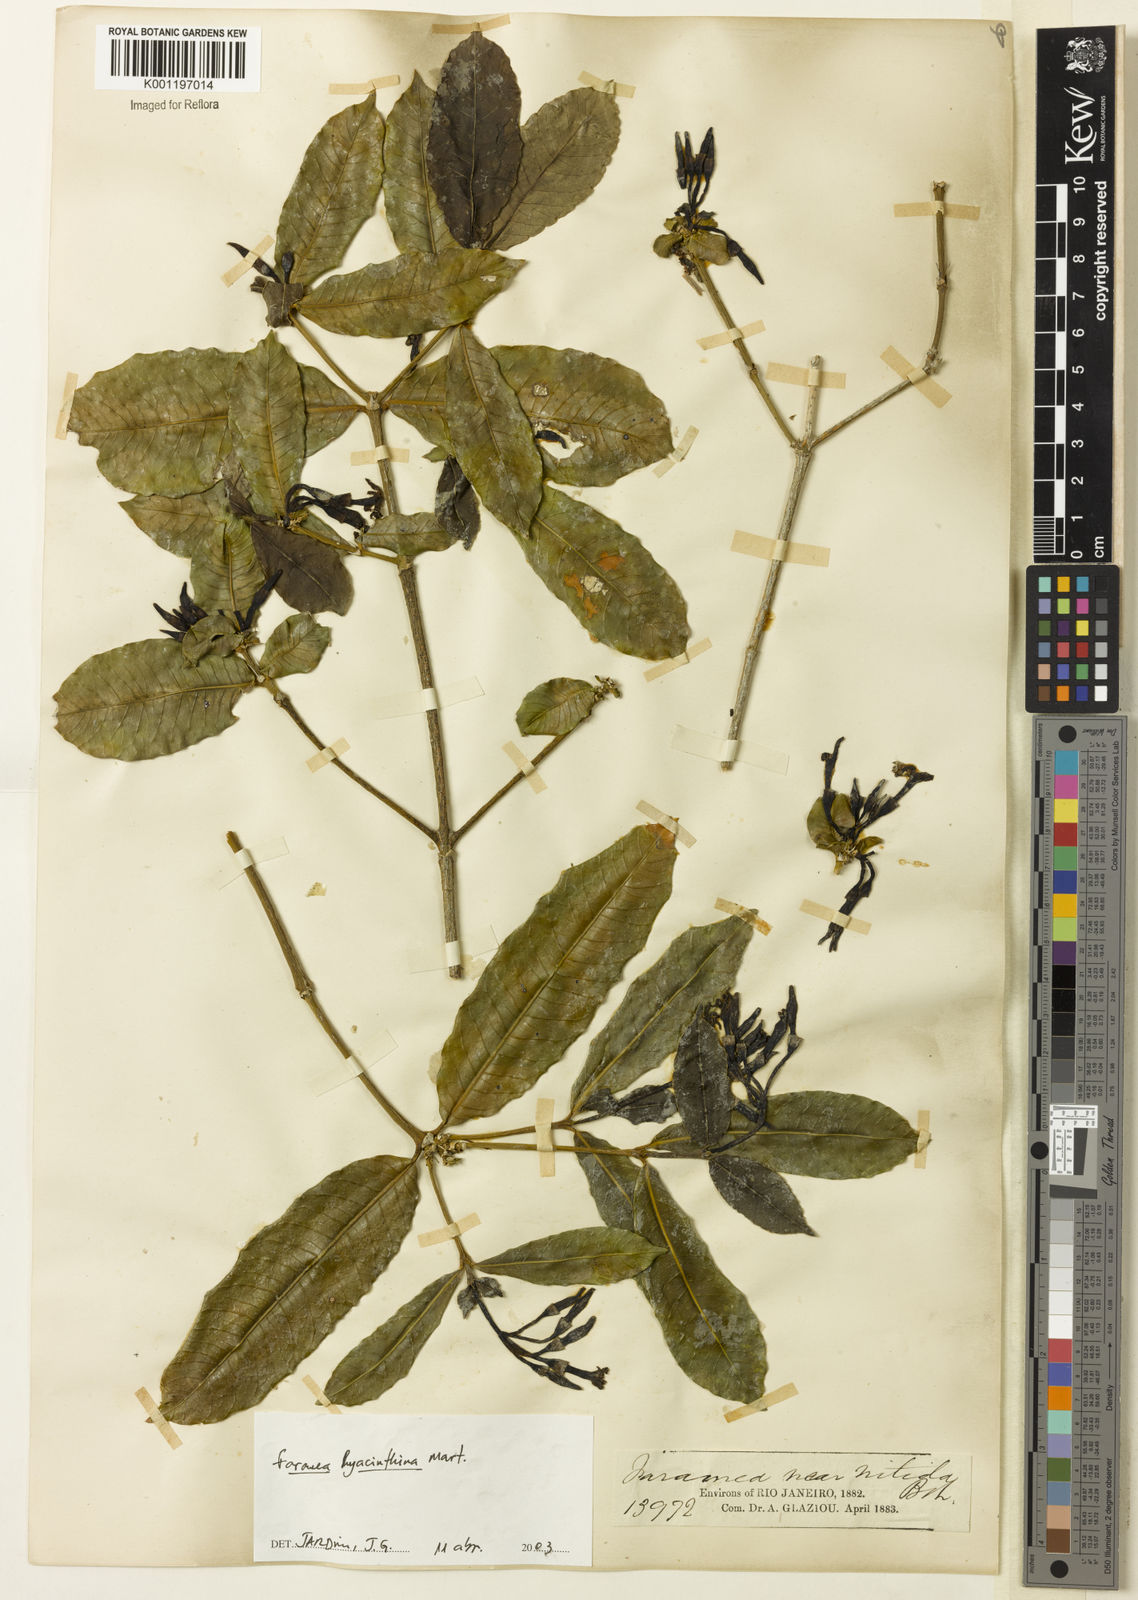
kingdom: Plantae
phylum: Tracheophyta
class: Magnoliopsida
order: Gentianales
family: Rubiaceae
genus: Faramea
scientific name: Faramea hyacinthina
